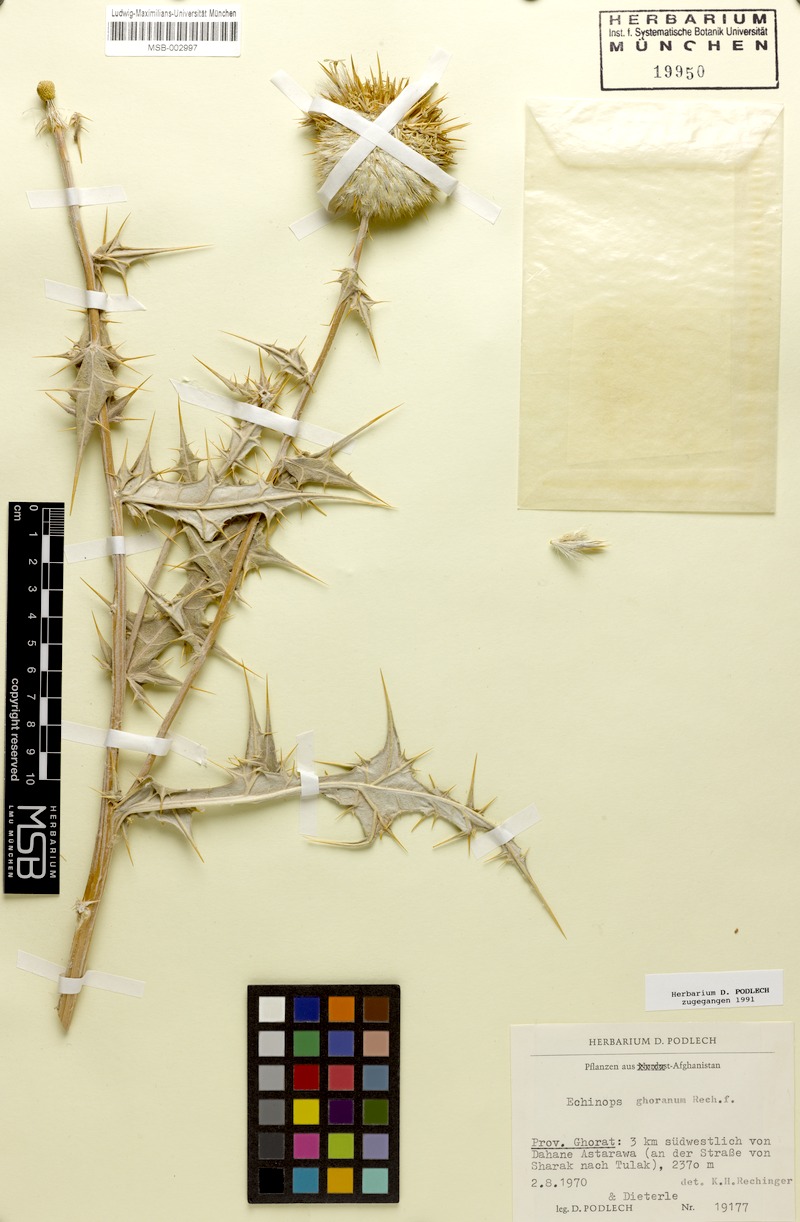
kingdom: Plantae
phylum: Tracheophyta
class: Magnoliopsida
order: Asterales
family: Asteraceae
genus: Echinops
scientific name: Echinops ghoranus
